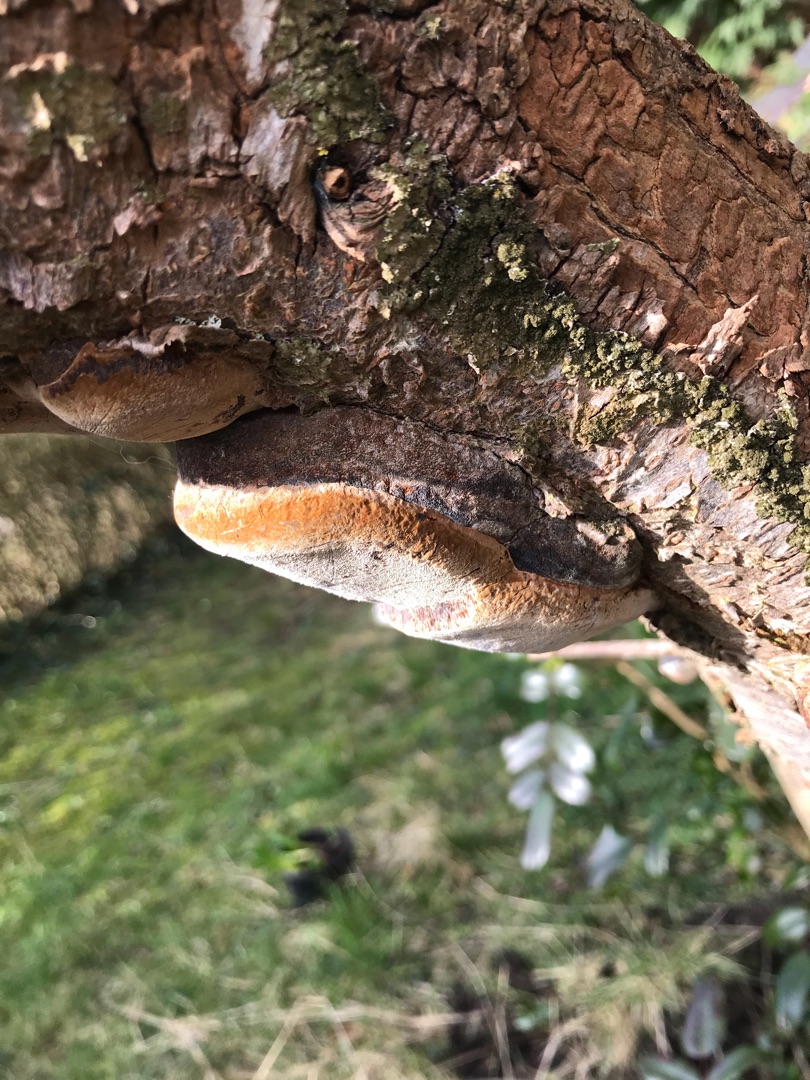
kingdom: Fungi
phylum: Basidiomycota
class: Agaricomycetes
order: Hymenochaetales
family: Hymenochaetaceae
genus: Phellinus
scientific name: Phellinus pomaceus
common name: Blomme-ildporesvamp
